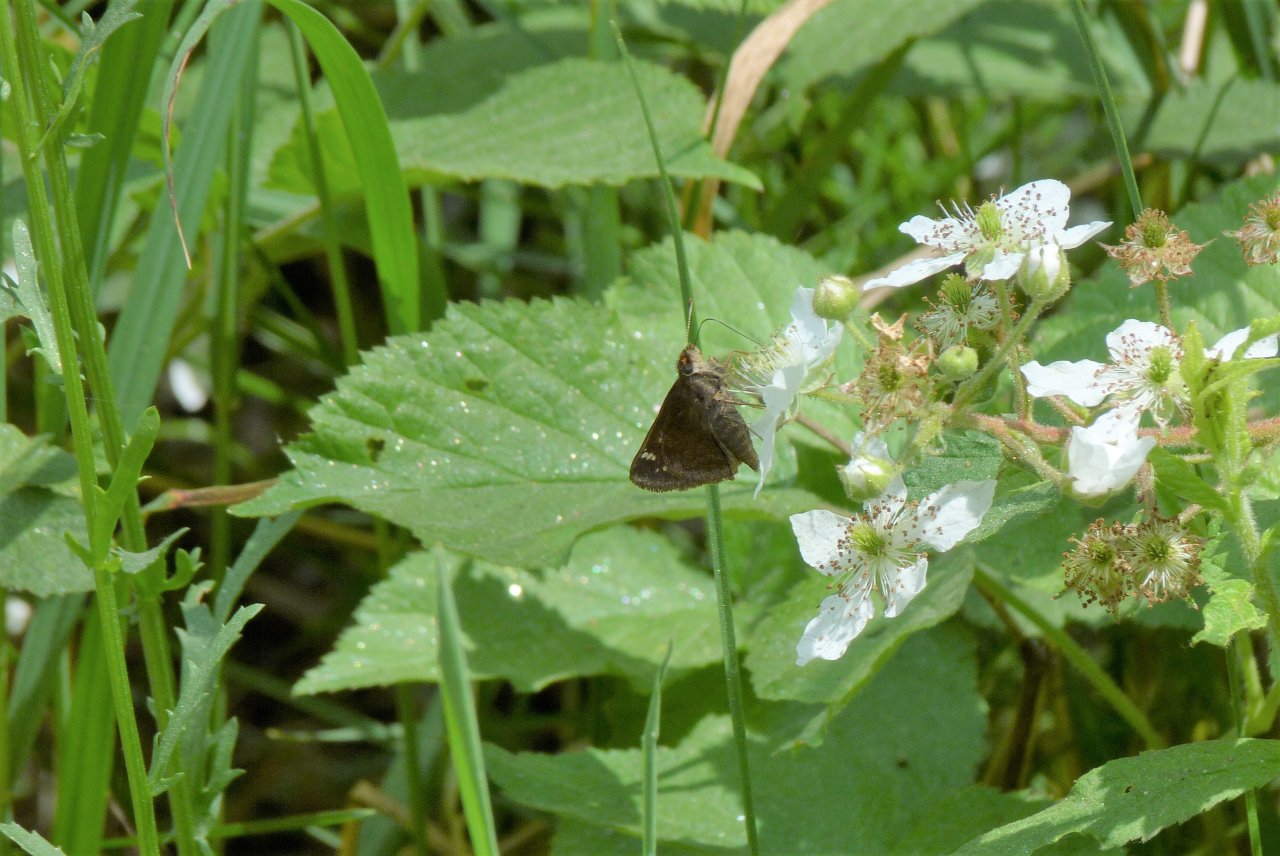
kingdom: Animalia
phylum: Arthropoda
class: Insecta
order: Lepidoptera
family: Hesperiidae
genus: Lon
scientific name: Lon hobomok
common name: Hobomok Skipper
